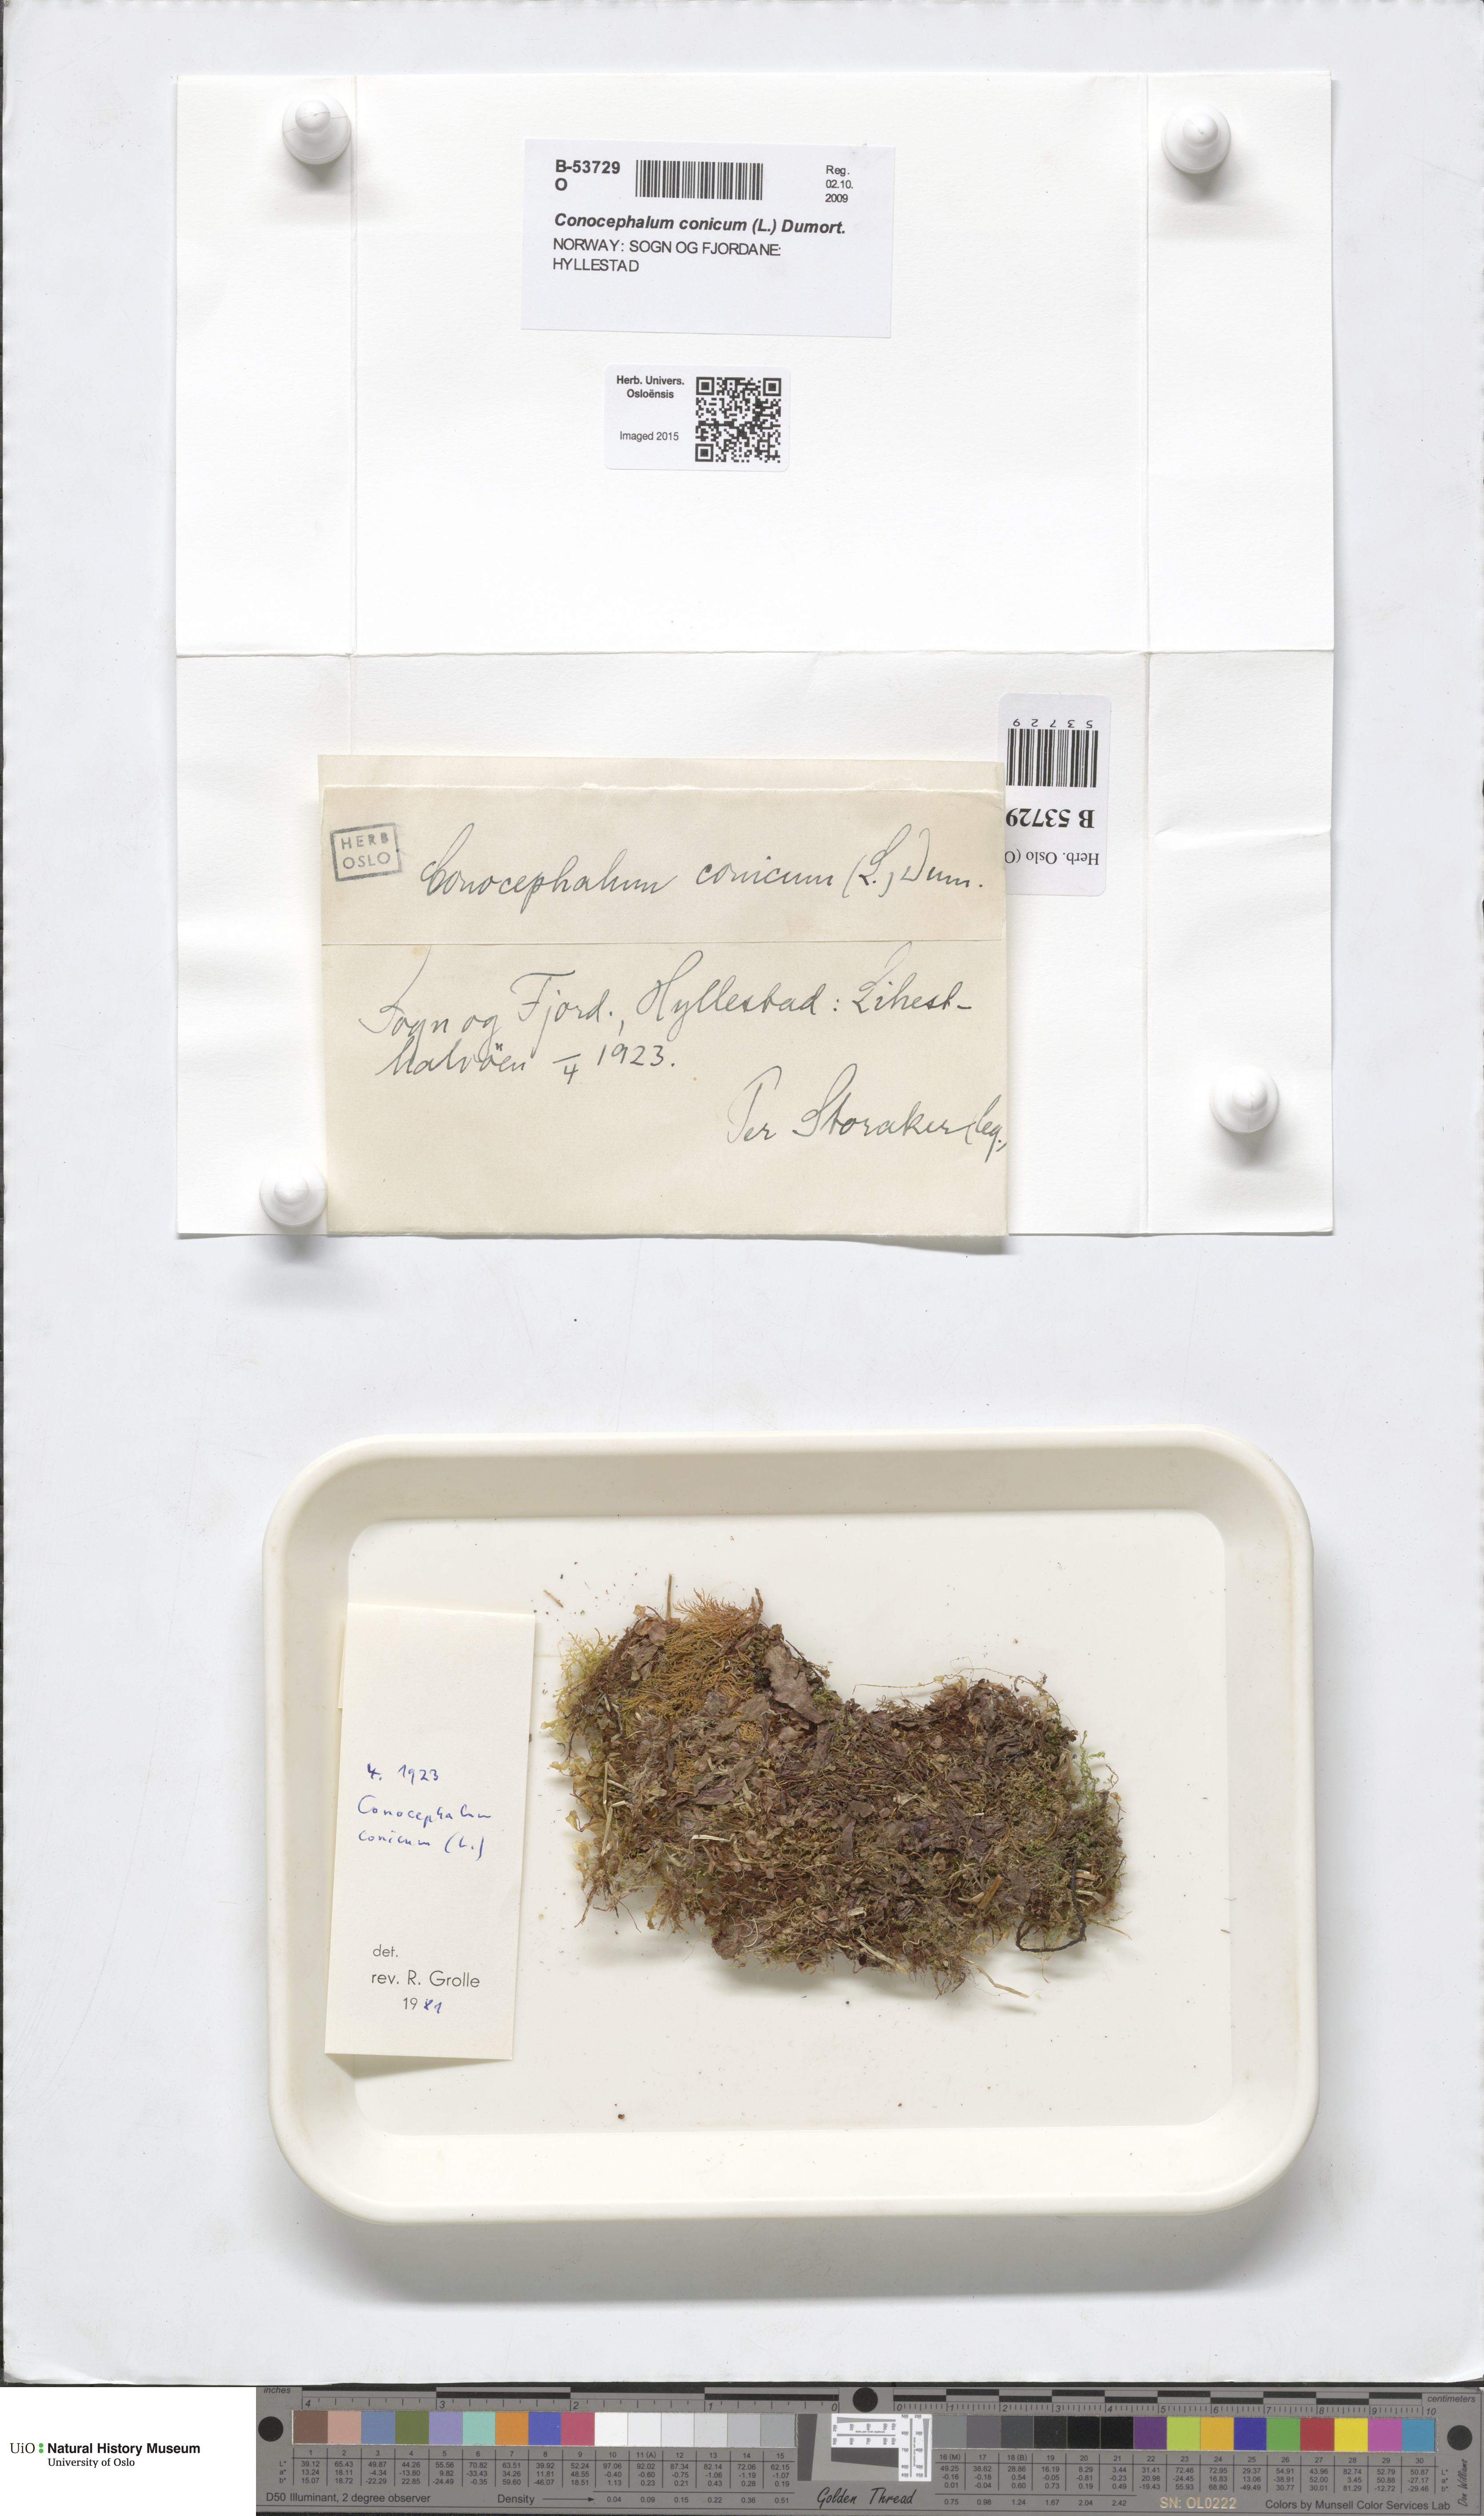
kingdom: Plantae
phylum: Marchantiophyta
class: Marchantiopsida
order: Marchantiales
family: Conocephalaceae
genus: Conocephalum
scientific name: Conocephalum conicum
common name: Great scented liverwort
